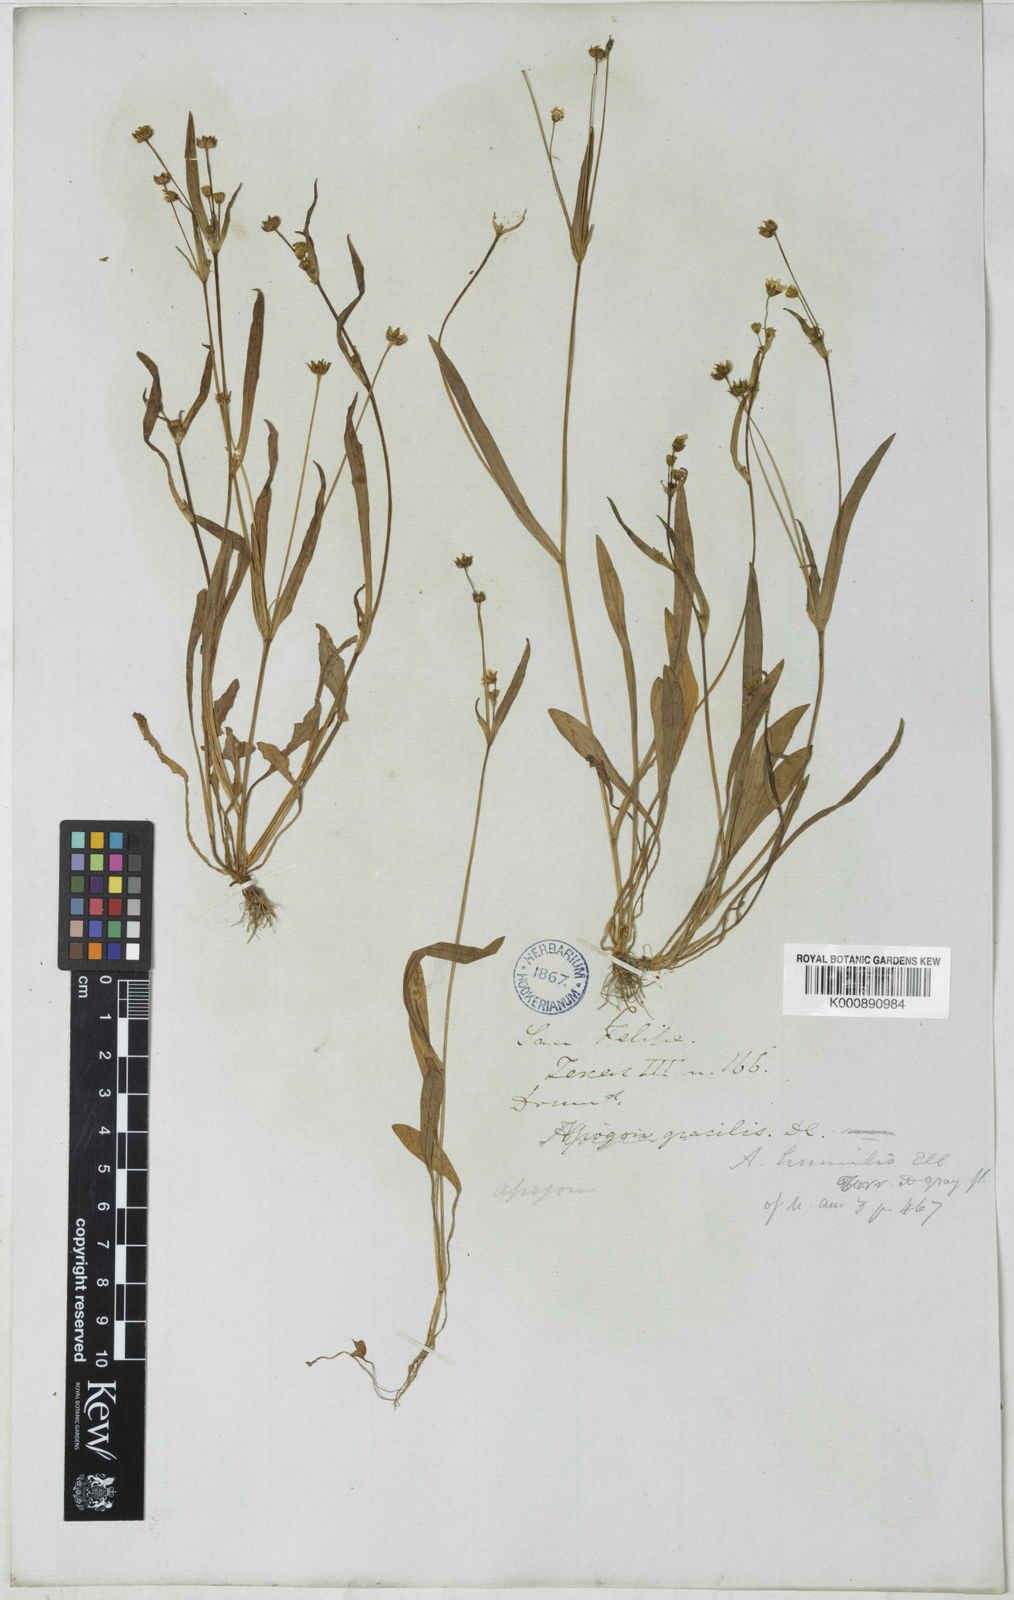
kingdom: Plantae
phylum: Tracheophyta
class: Magnoliopsida
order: Asterales
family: Asteraceae
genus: Krigia
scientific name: Krigia cespitosa
